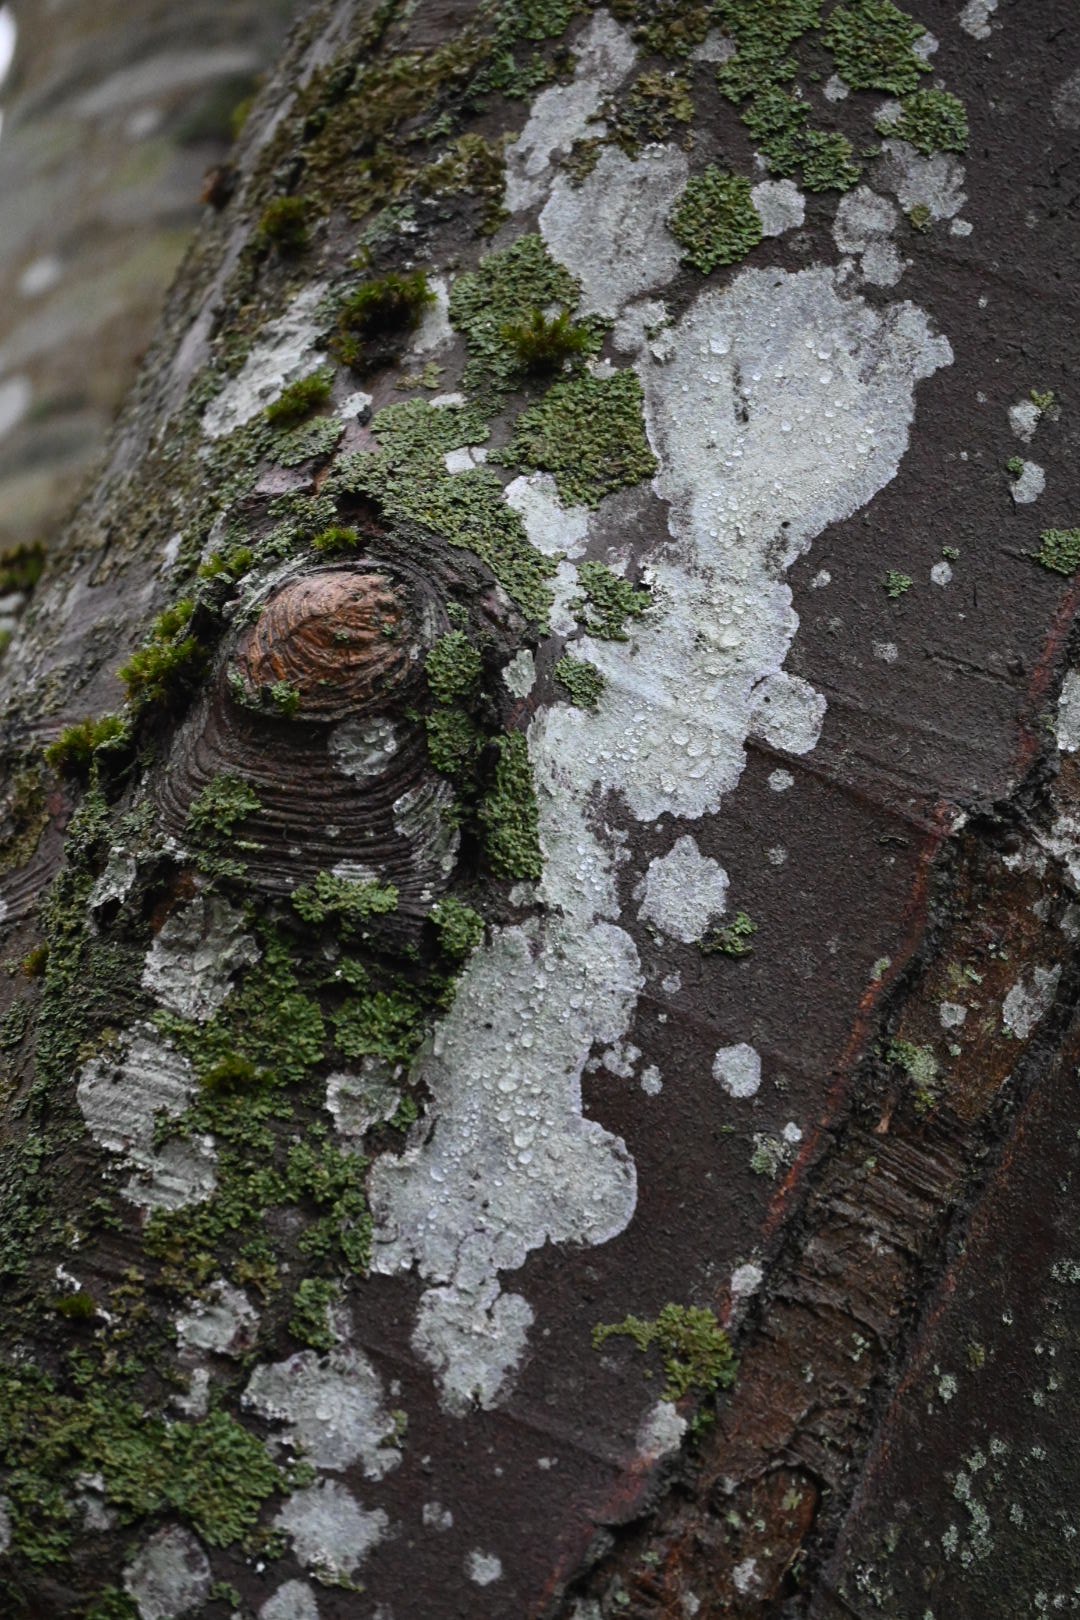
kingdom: Fungi
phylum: Ascomycota
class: Lecanoromycetes
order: Ostropales
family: Phlyctidaceae
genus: Phlyctis
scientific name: Phlyctis argena
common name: almindelig sølvlav
